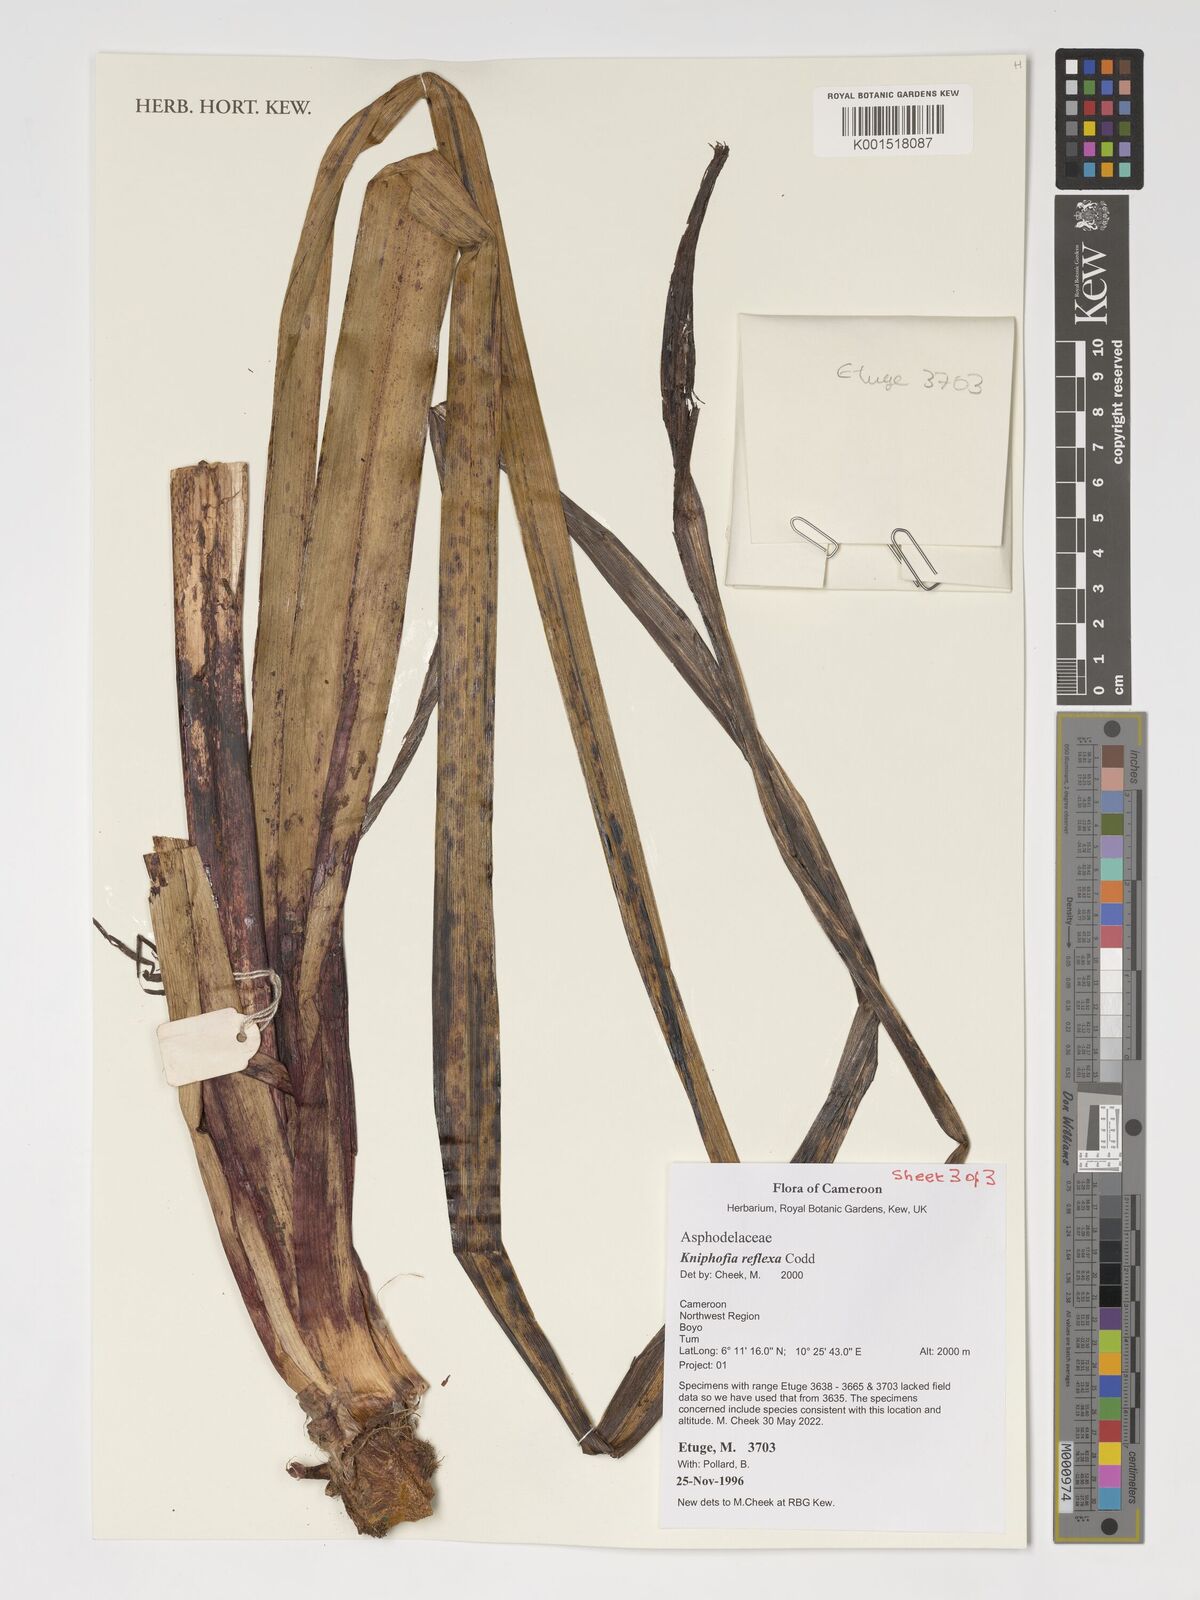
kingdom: Plantae
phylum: Tracheophyta
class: Liliopsida
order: Asparagales
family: Asphodelaceae
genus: Kniphofia
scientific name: Kniphofia reflexa
